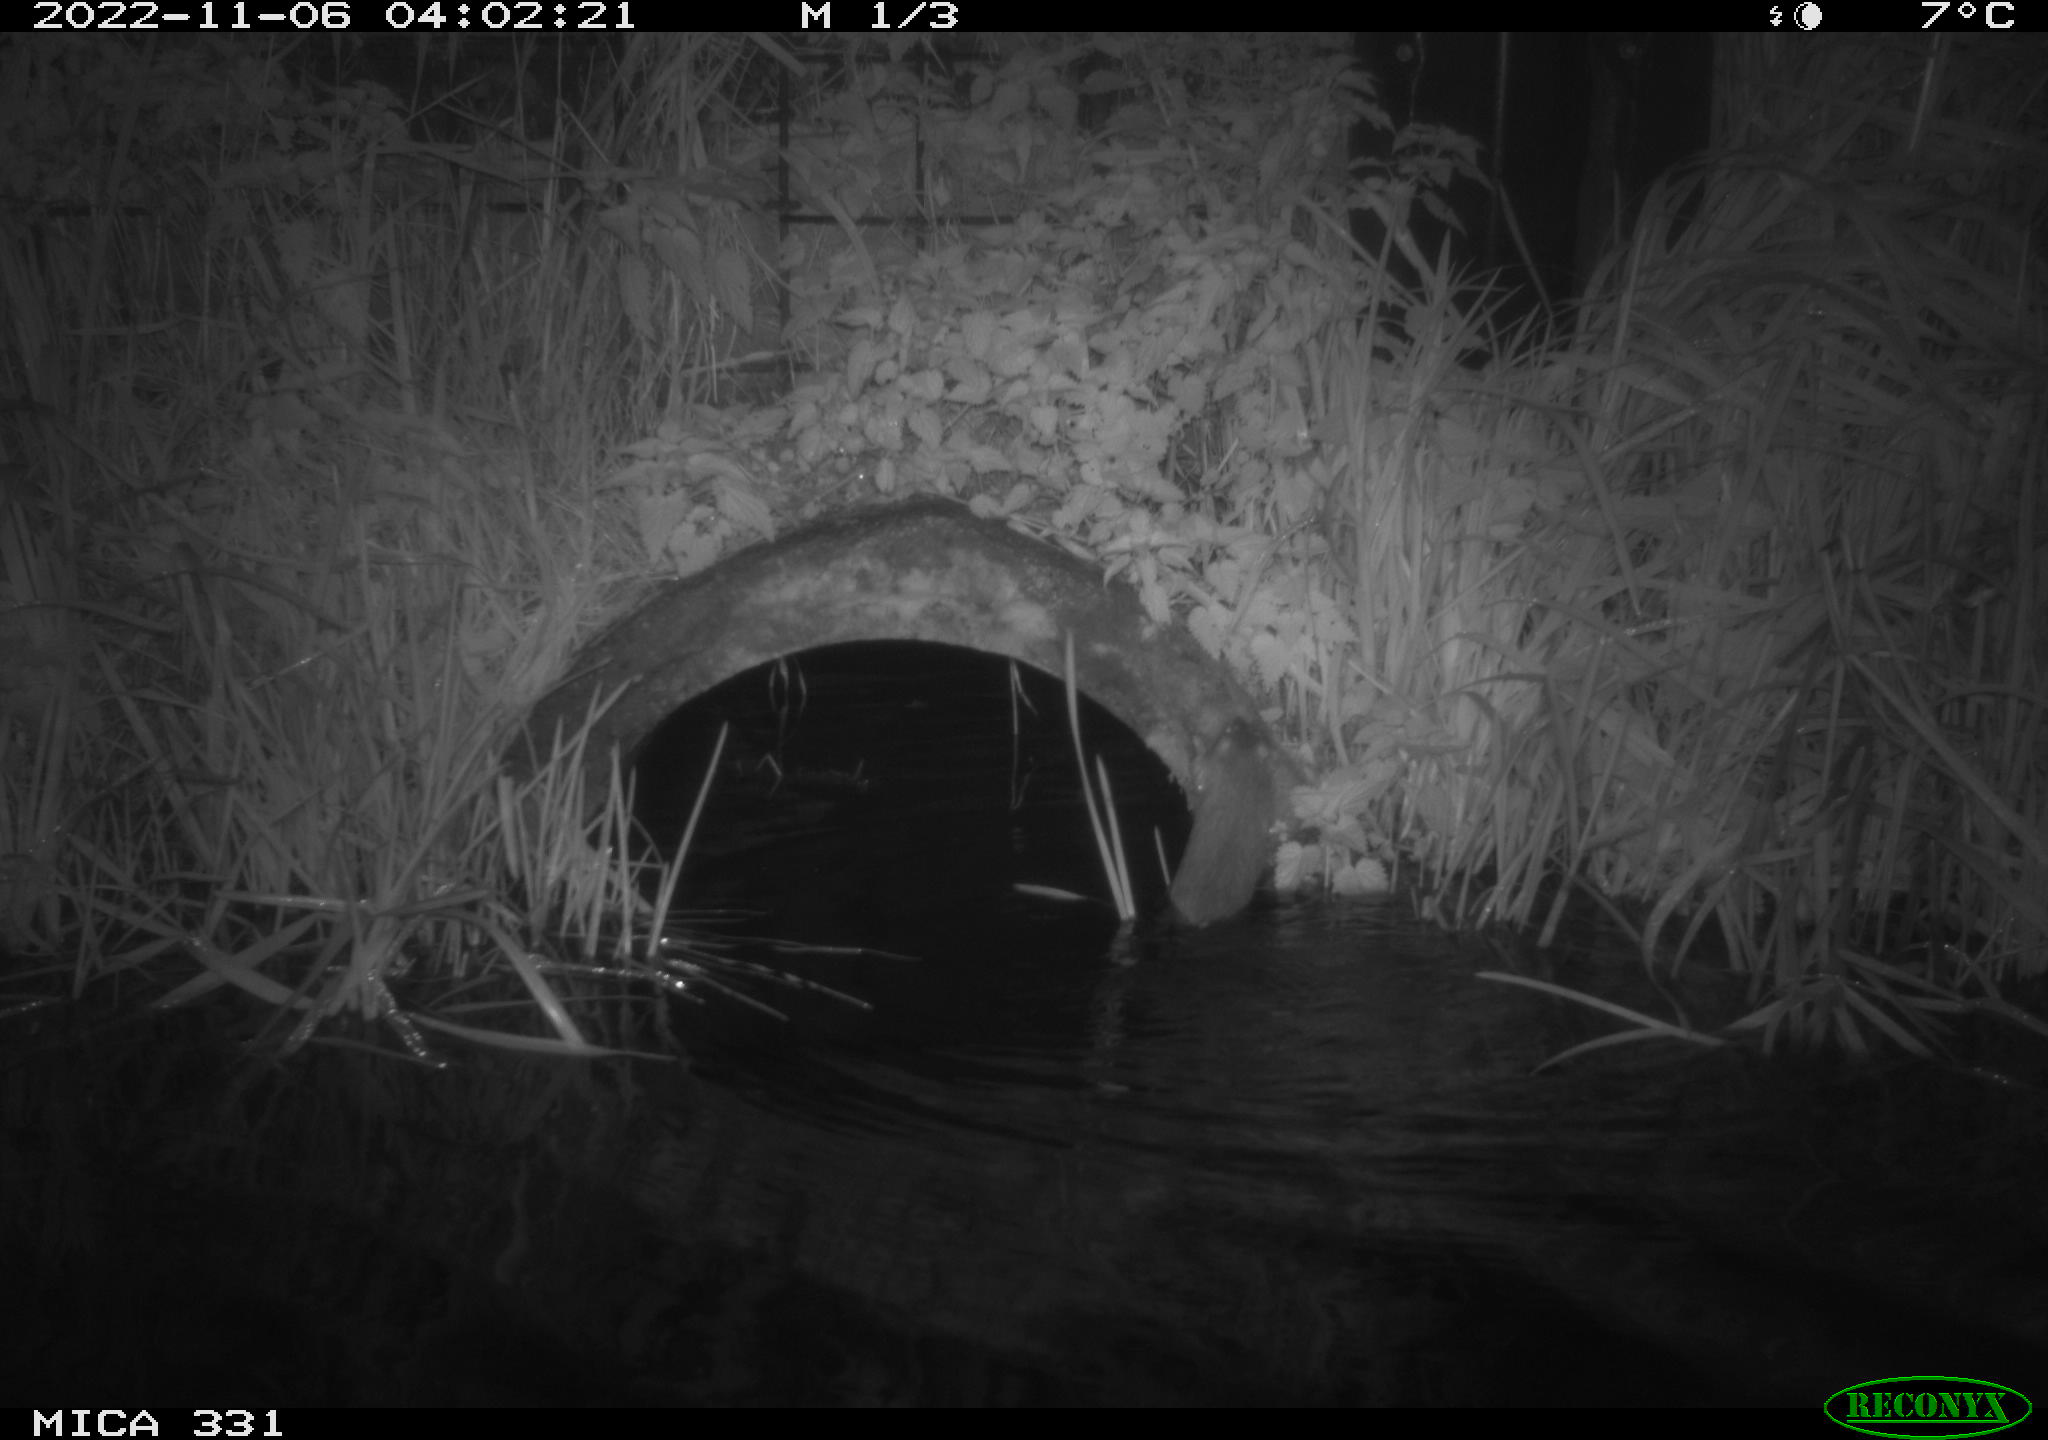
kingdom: Animalia
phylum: Chordata
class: Mammalia
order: Rodentia
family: Muridae
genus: Rattus
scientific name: Rattus norvegicus
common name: Brown rat
